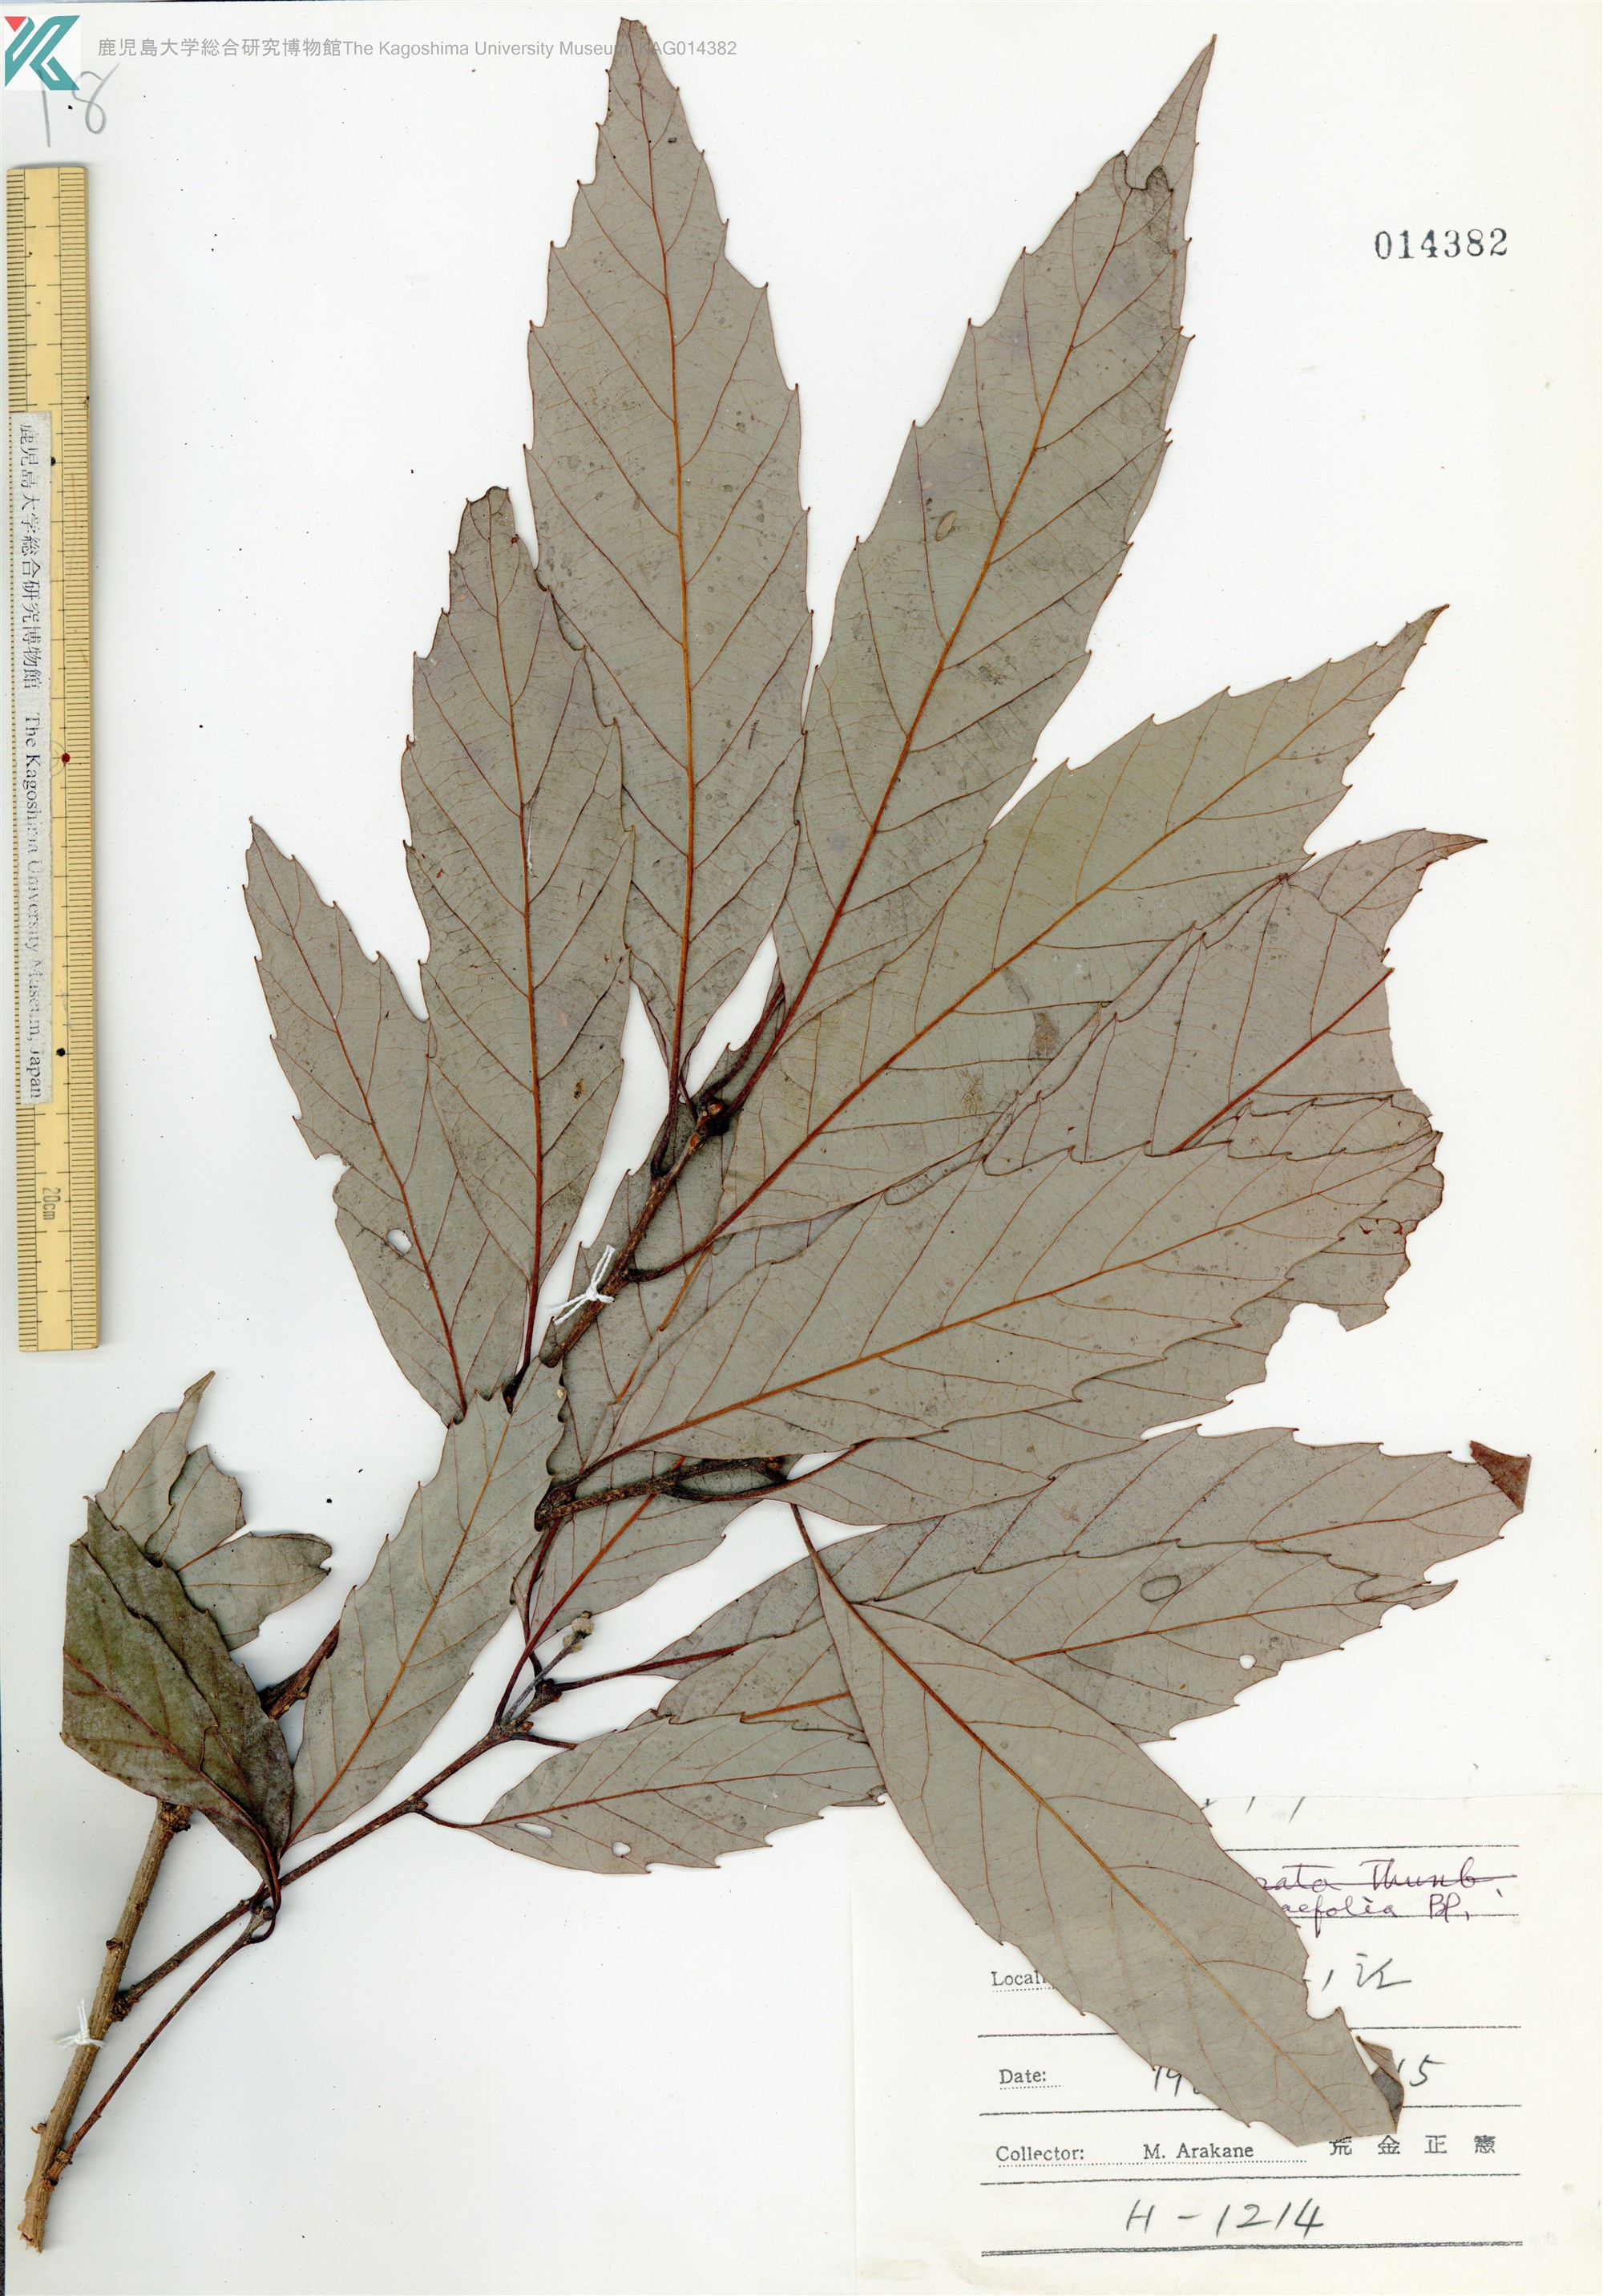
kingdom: Plantae
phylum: Tracheophyta
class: Magnoliopsida
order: Fagales
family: Fagaceae
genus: Quercus
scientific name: Quercus urticifolia
